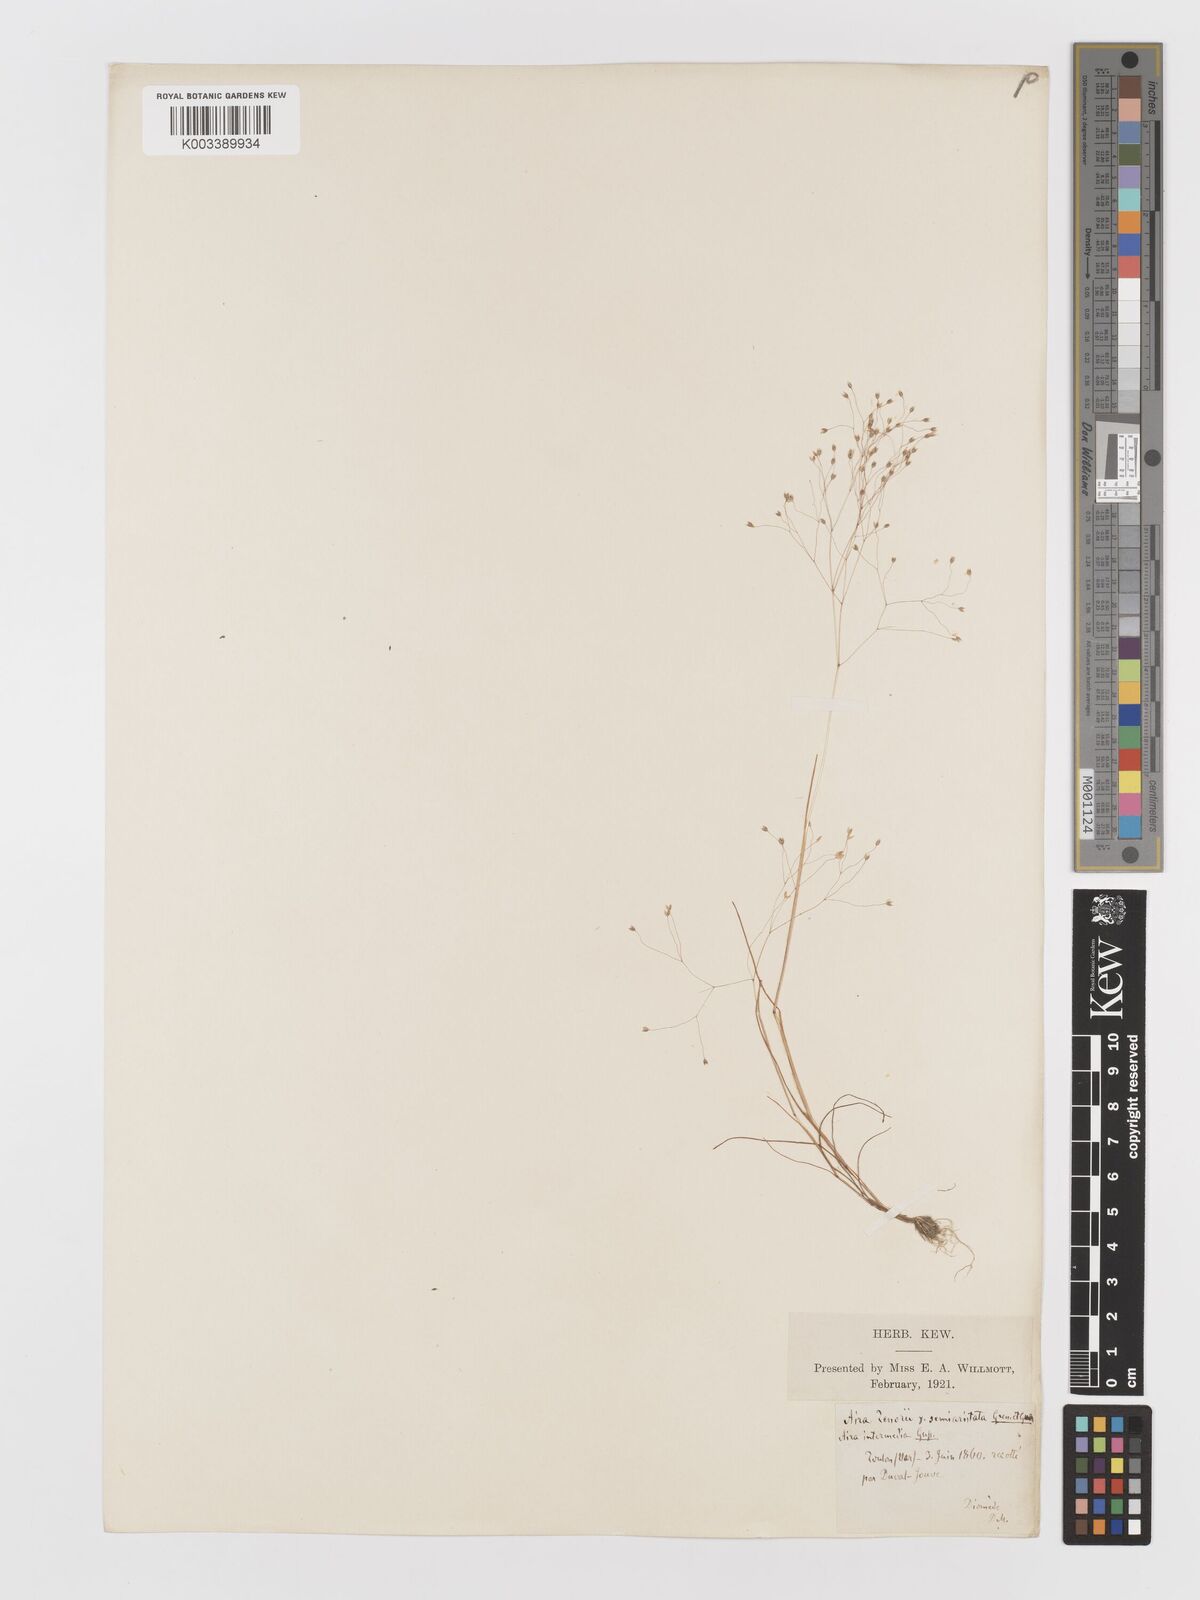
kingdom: Plantae
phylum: Tracheophyta
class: Liliopsida
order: Poales
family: Poaceae
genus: Aira
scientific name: Aira
